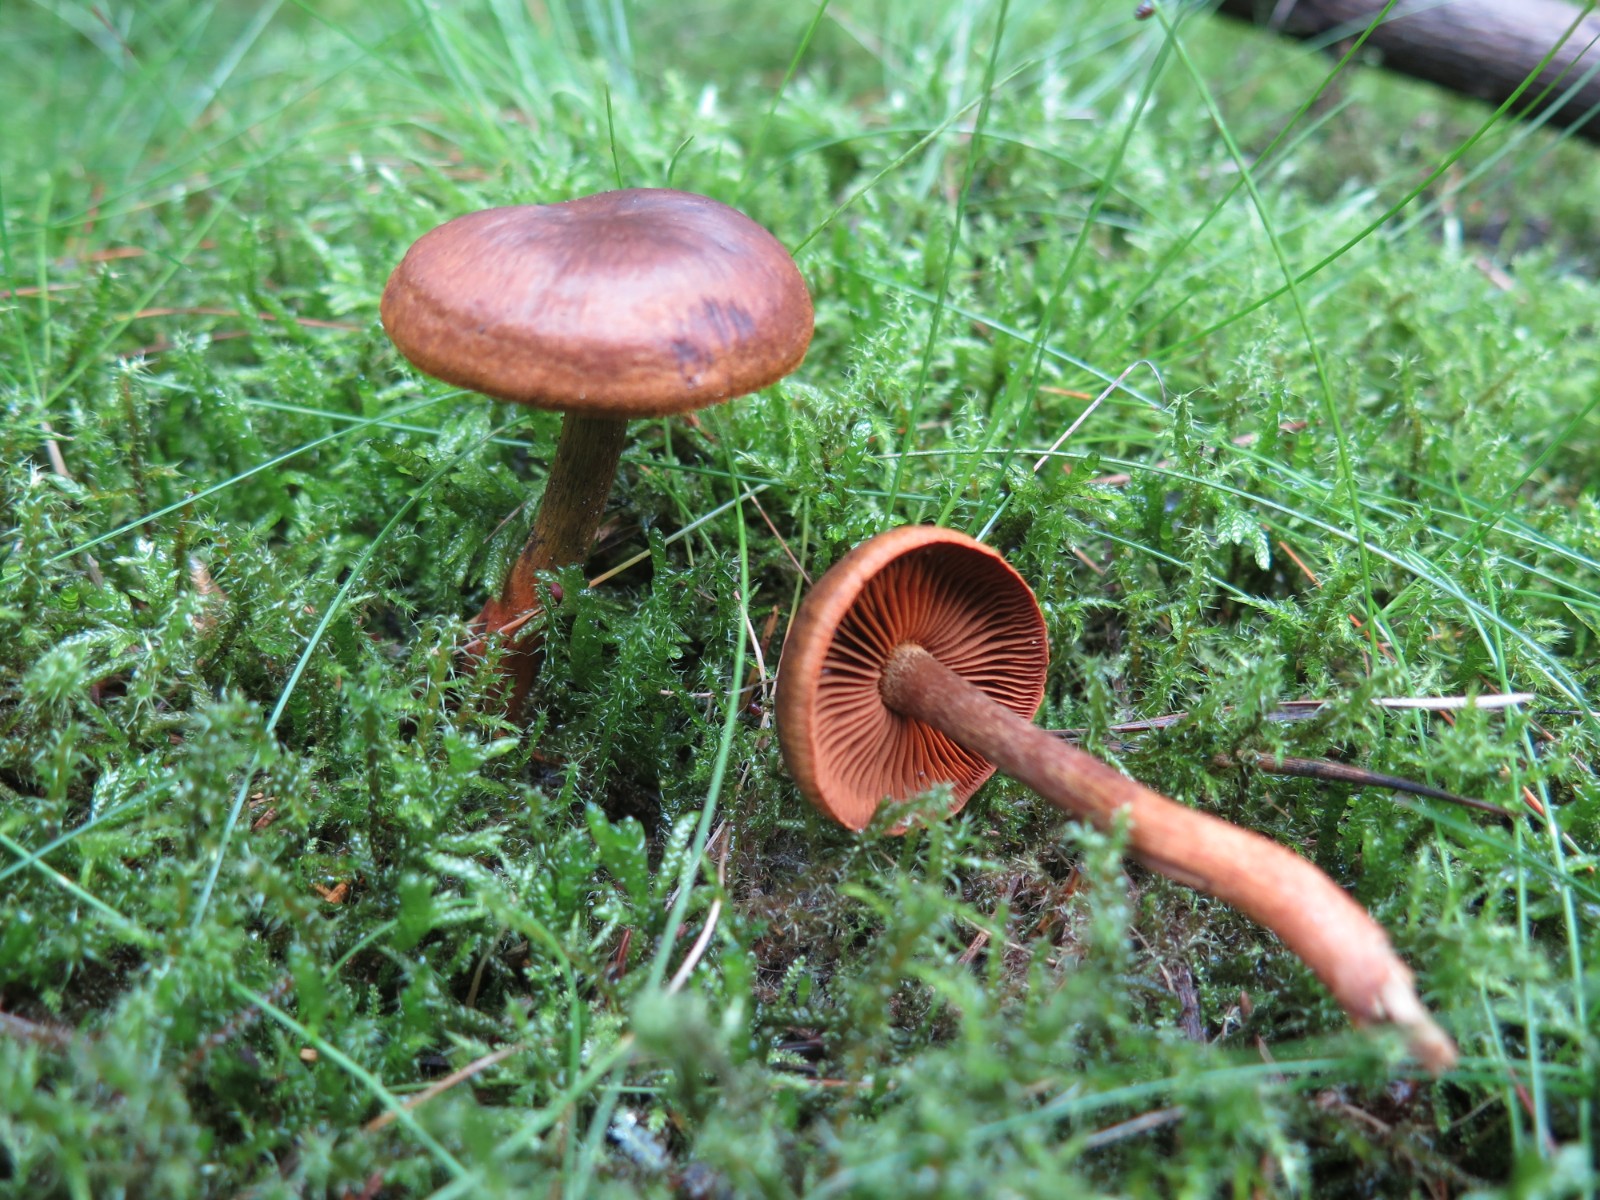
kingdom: Fungi
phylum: Basidiomycota
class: Agaricomycetes
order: Agaricales
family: Cortinariaceae
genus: Cortinarius
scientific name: Cortinarius
